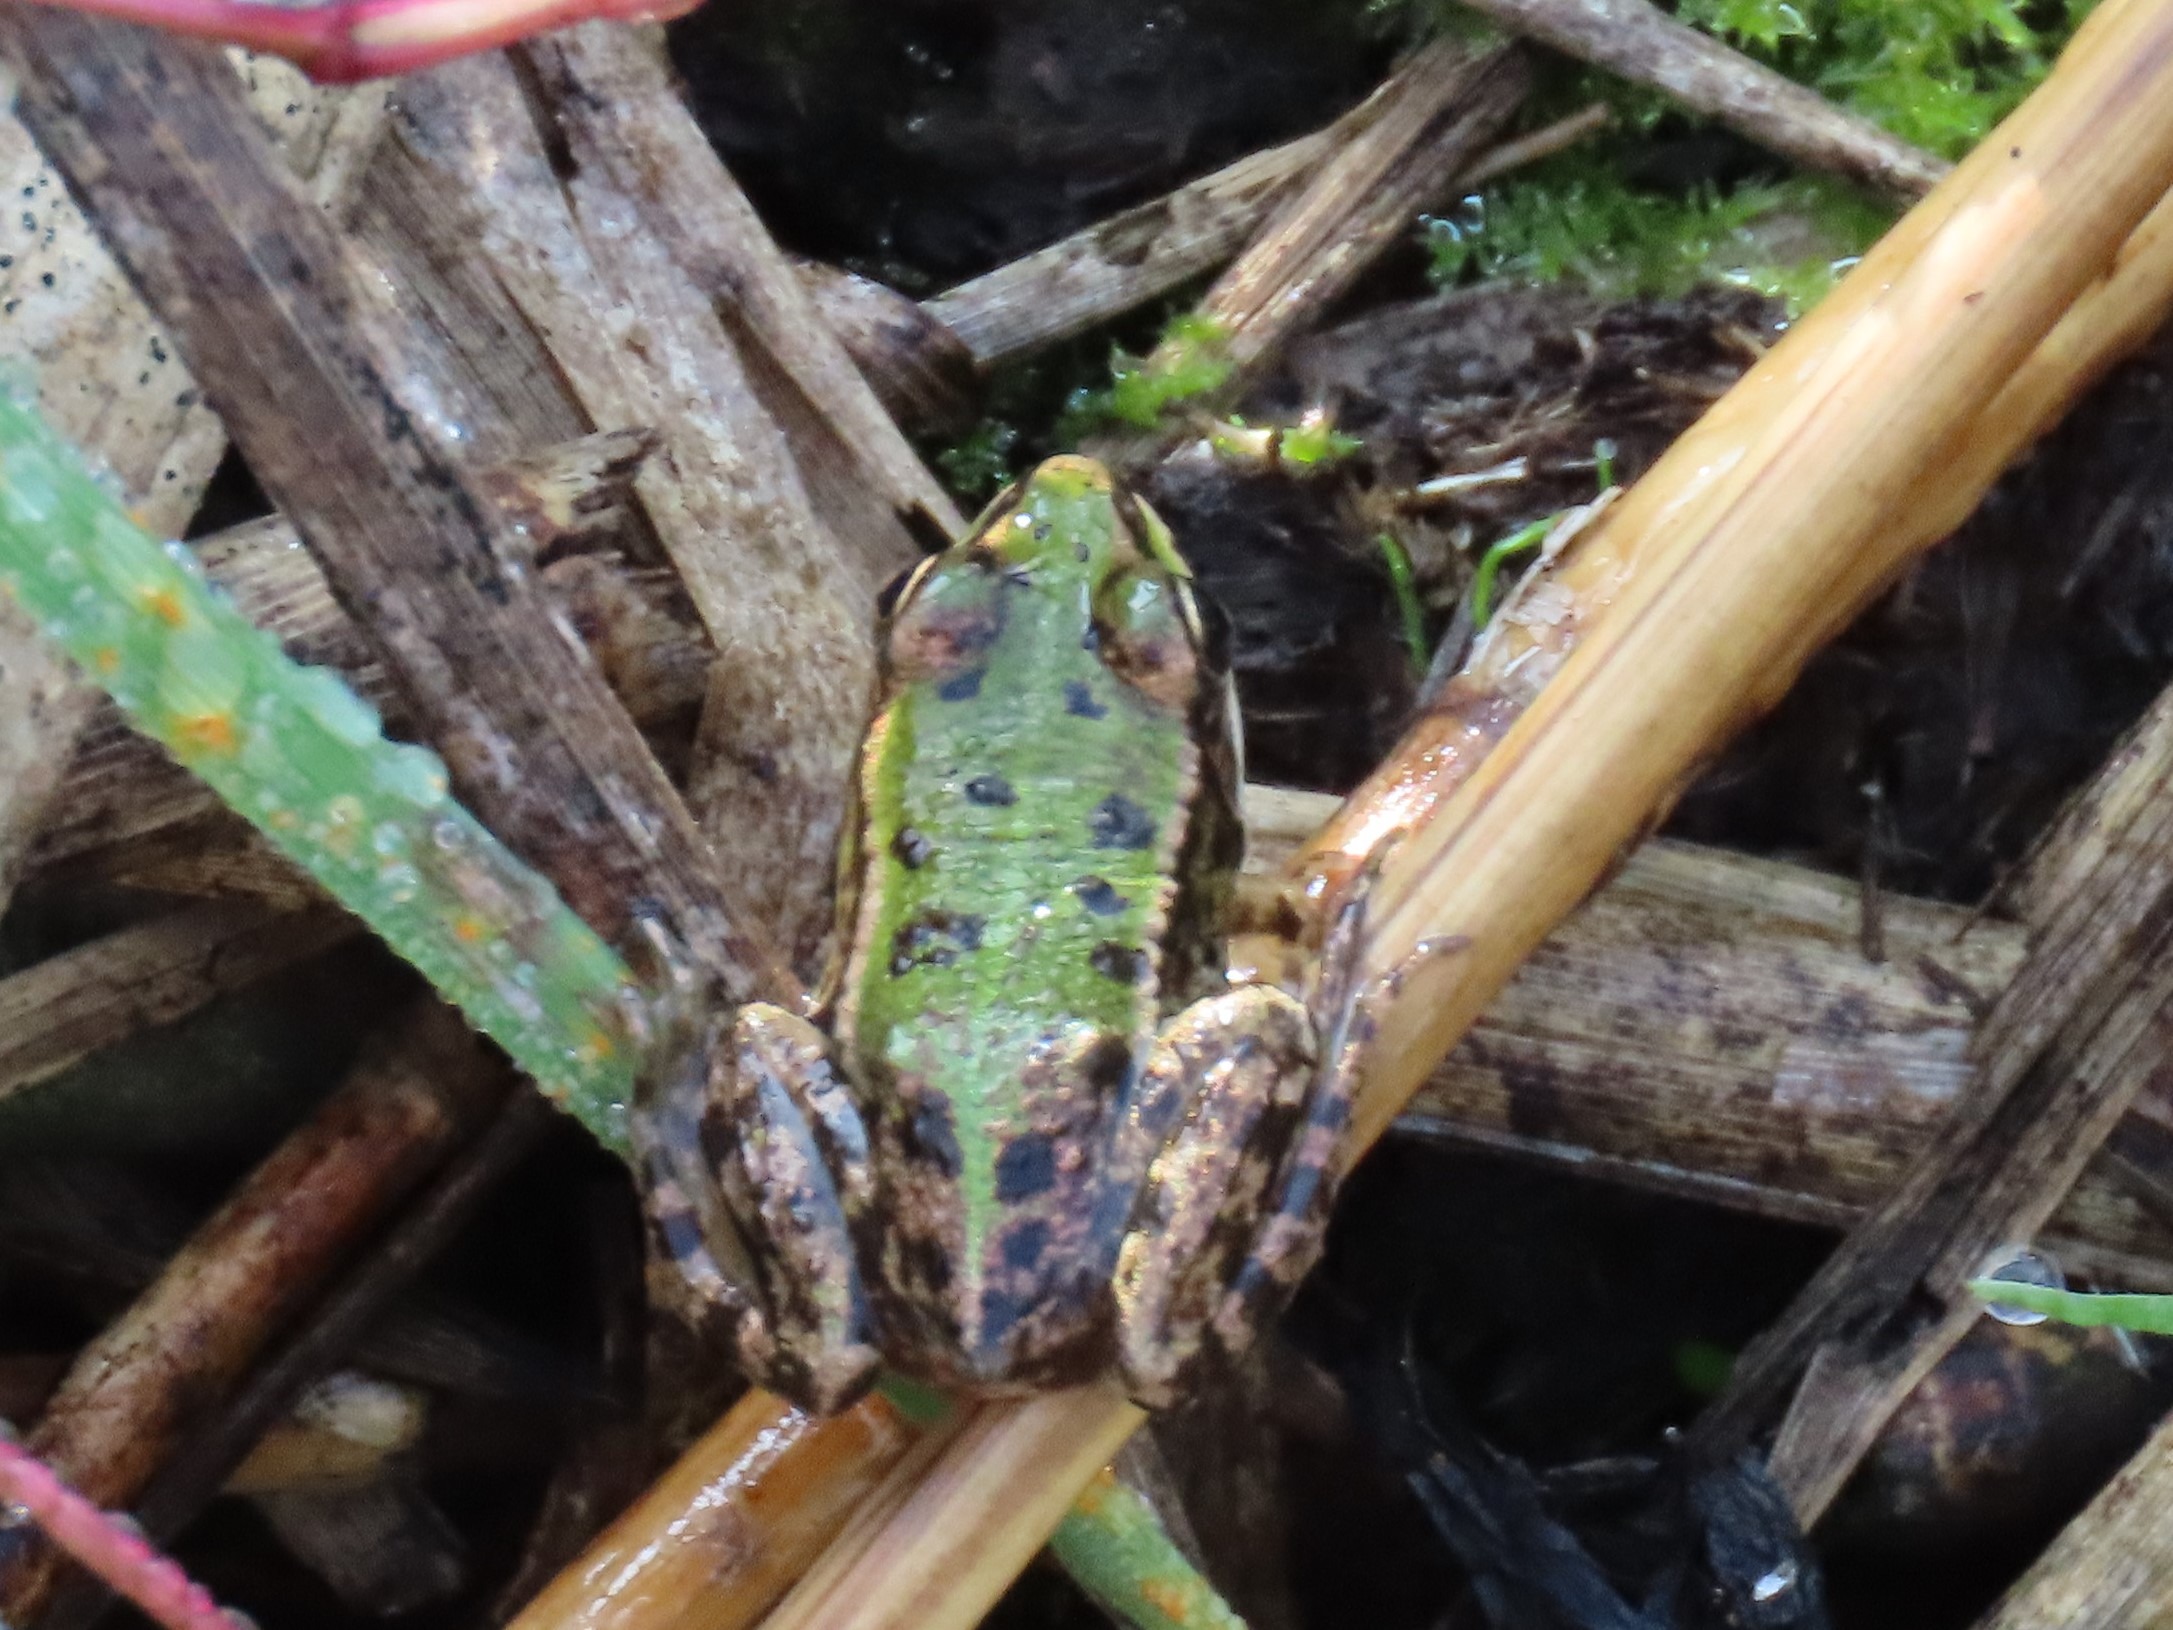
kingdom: Animalia
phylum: Chordata
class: Amphibia
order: Anura
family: Ranidae
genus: Pelophylax
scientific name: Pelophylax lessonae
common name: Grøn frø
